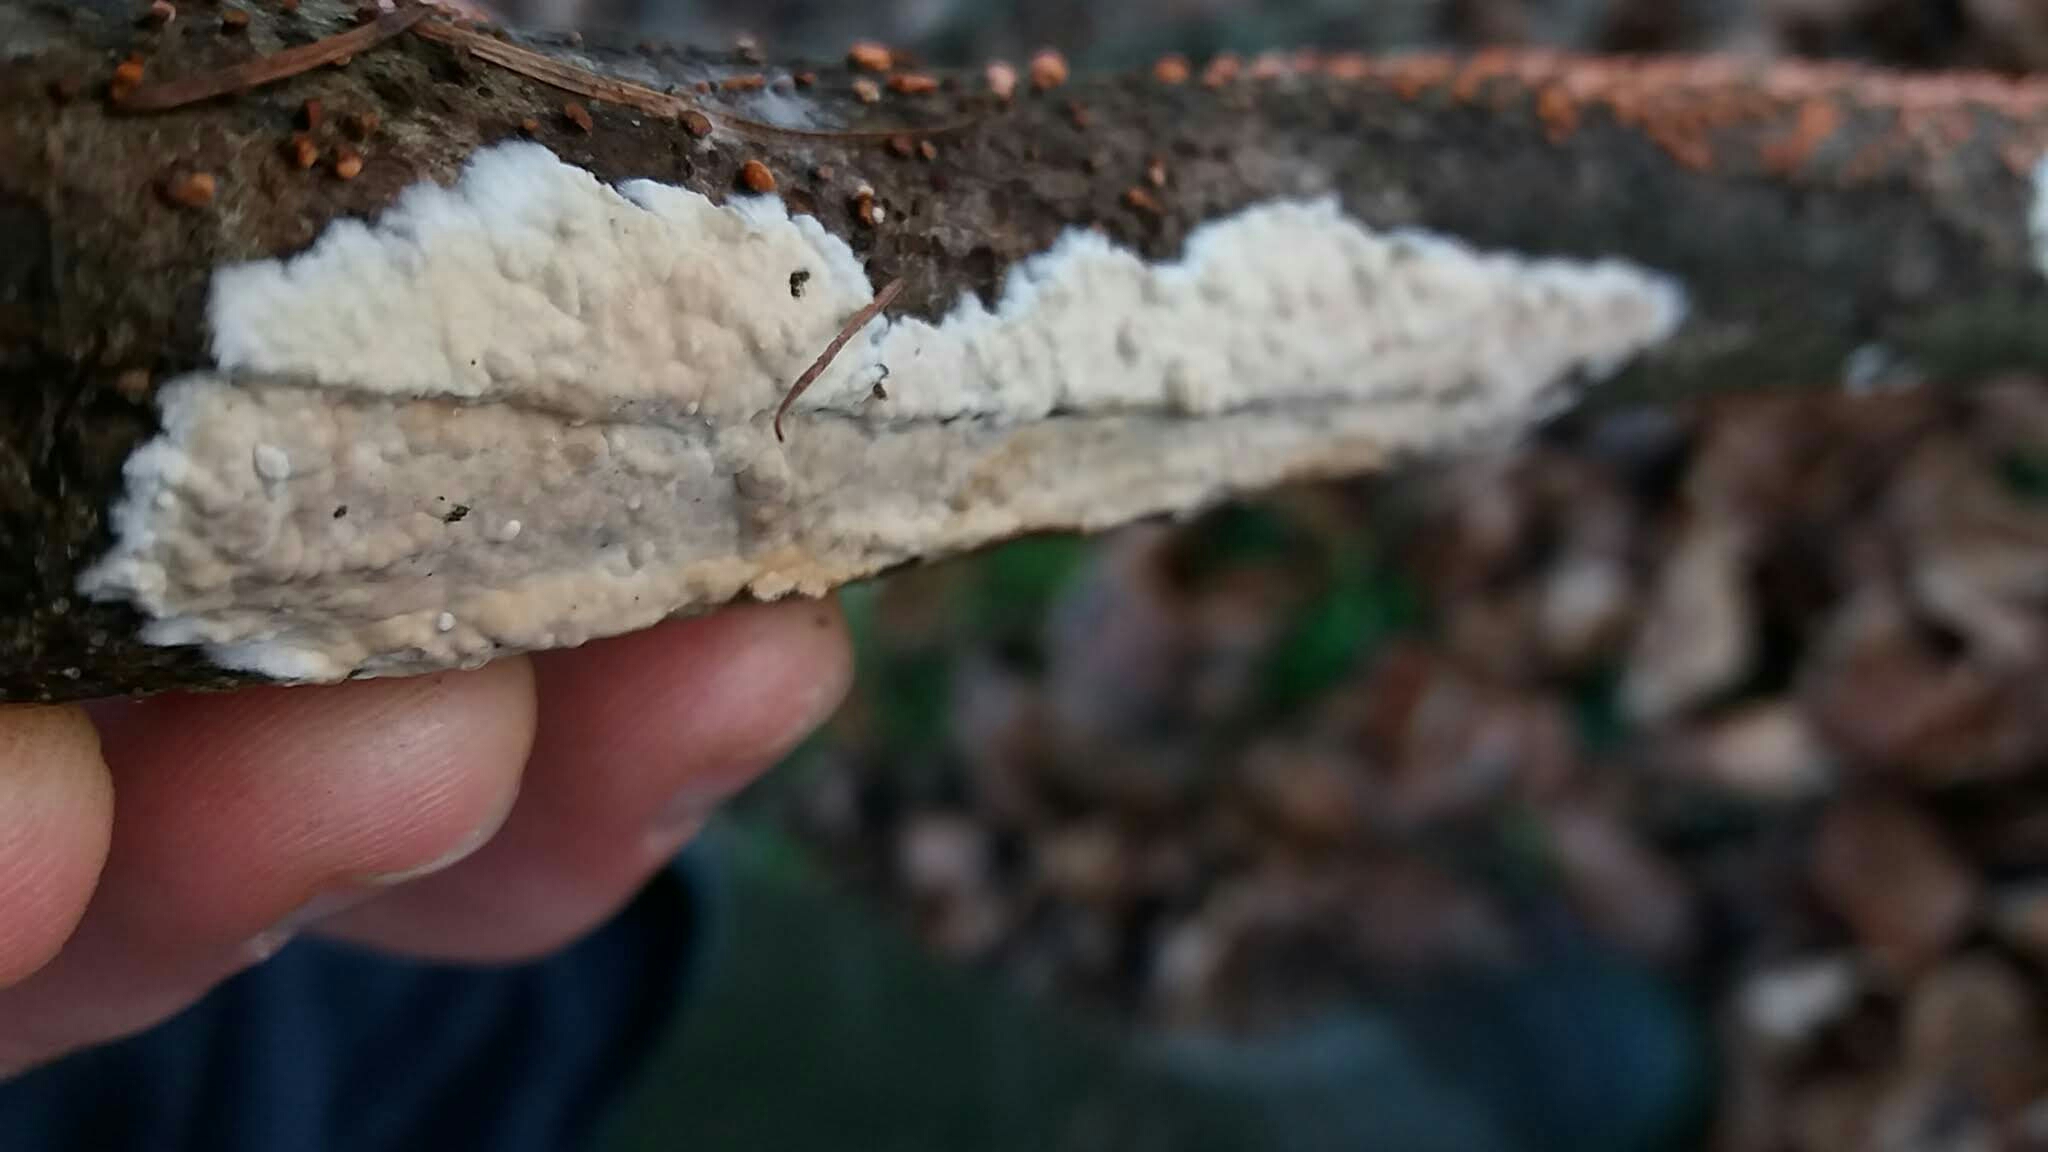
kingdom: Fungi
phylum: Basidiomycota
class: Agaricomycetes
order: Agaricales
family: Physalacriaceae
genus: Cylindrobasidium
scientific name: Cylindrobasidium evolvens
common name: sprækkehinde
